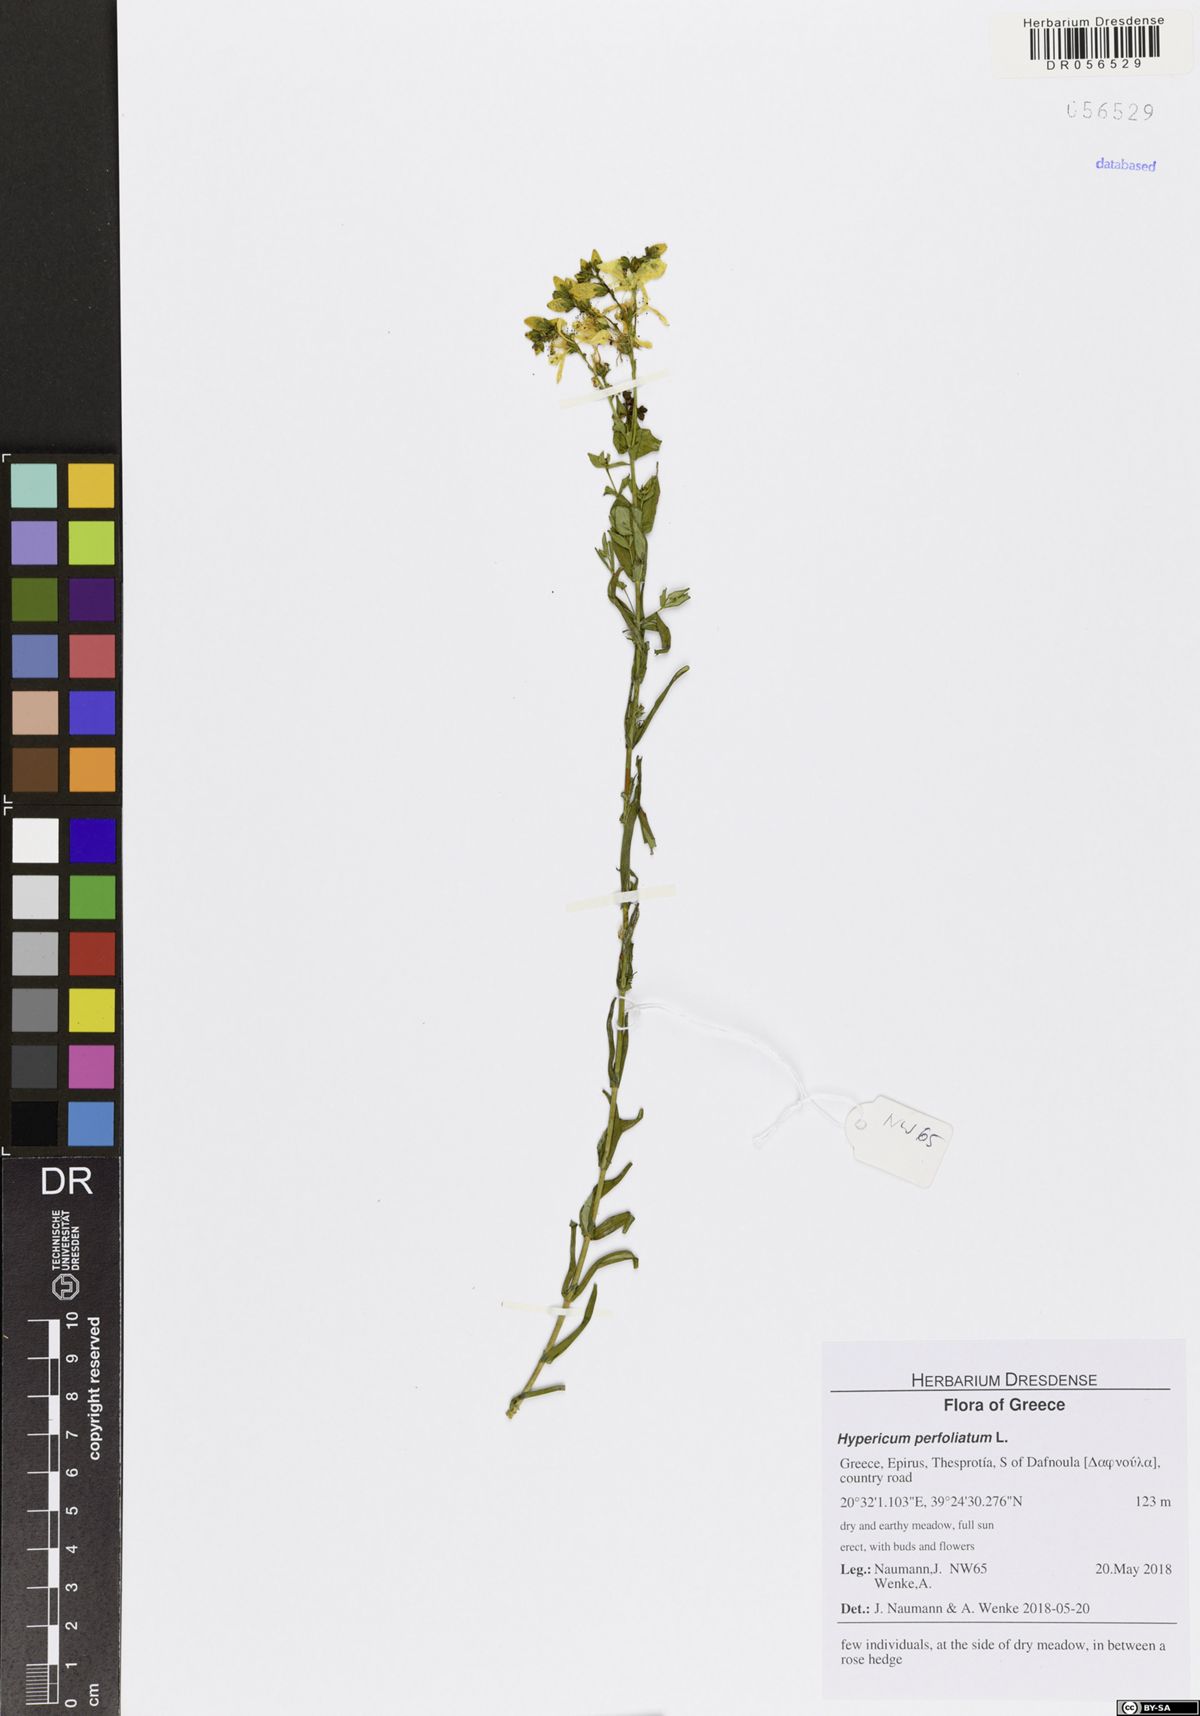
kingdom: Plantae
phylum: Tracheophyta
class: Magnoliopsida
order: Malpighiales
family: Hypericaceae
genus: Hypericum
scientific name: Hypericum perfoliatum
